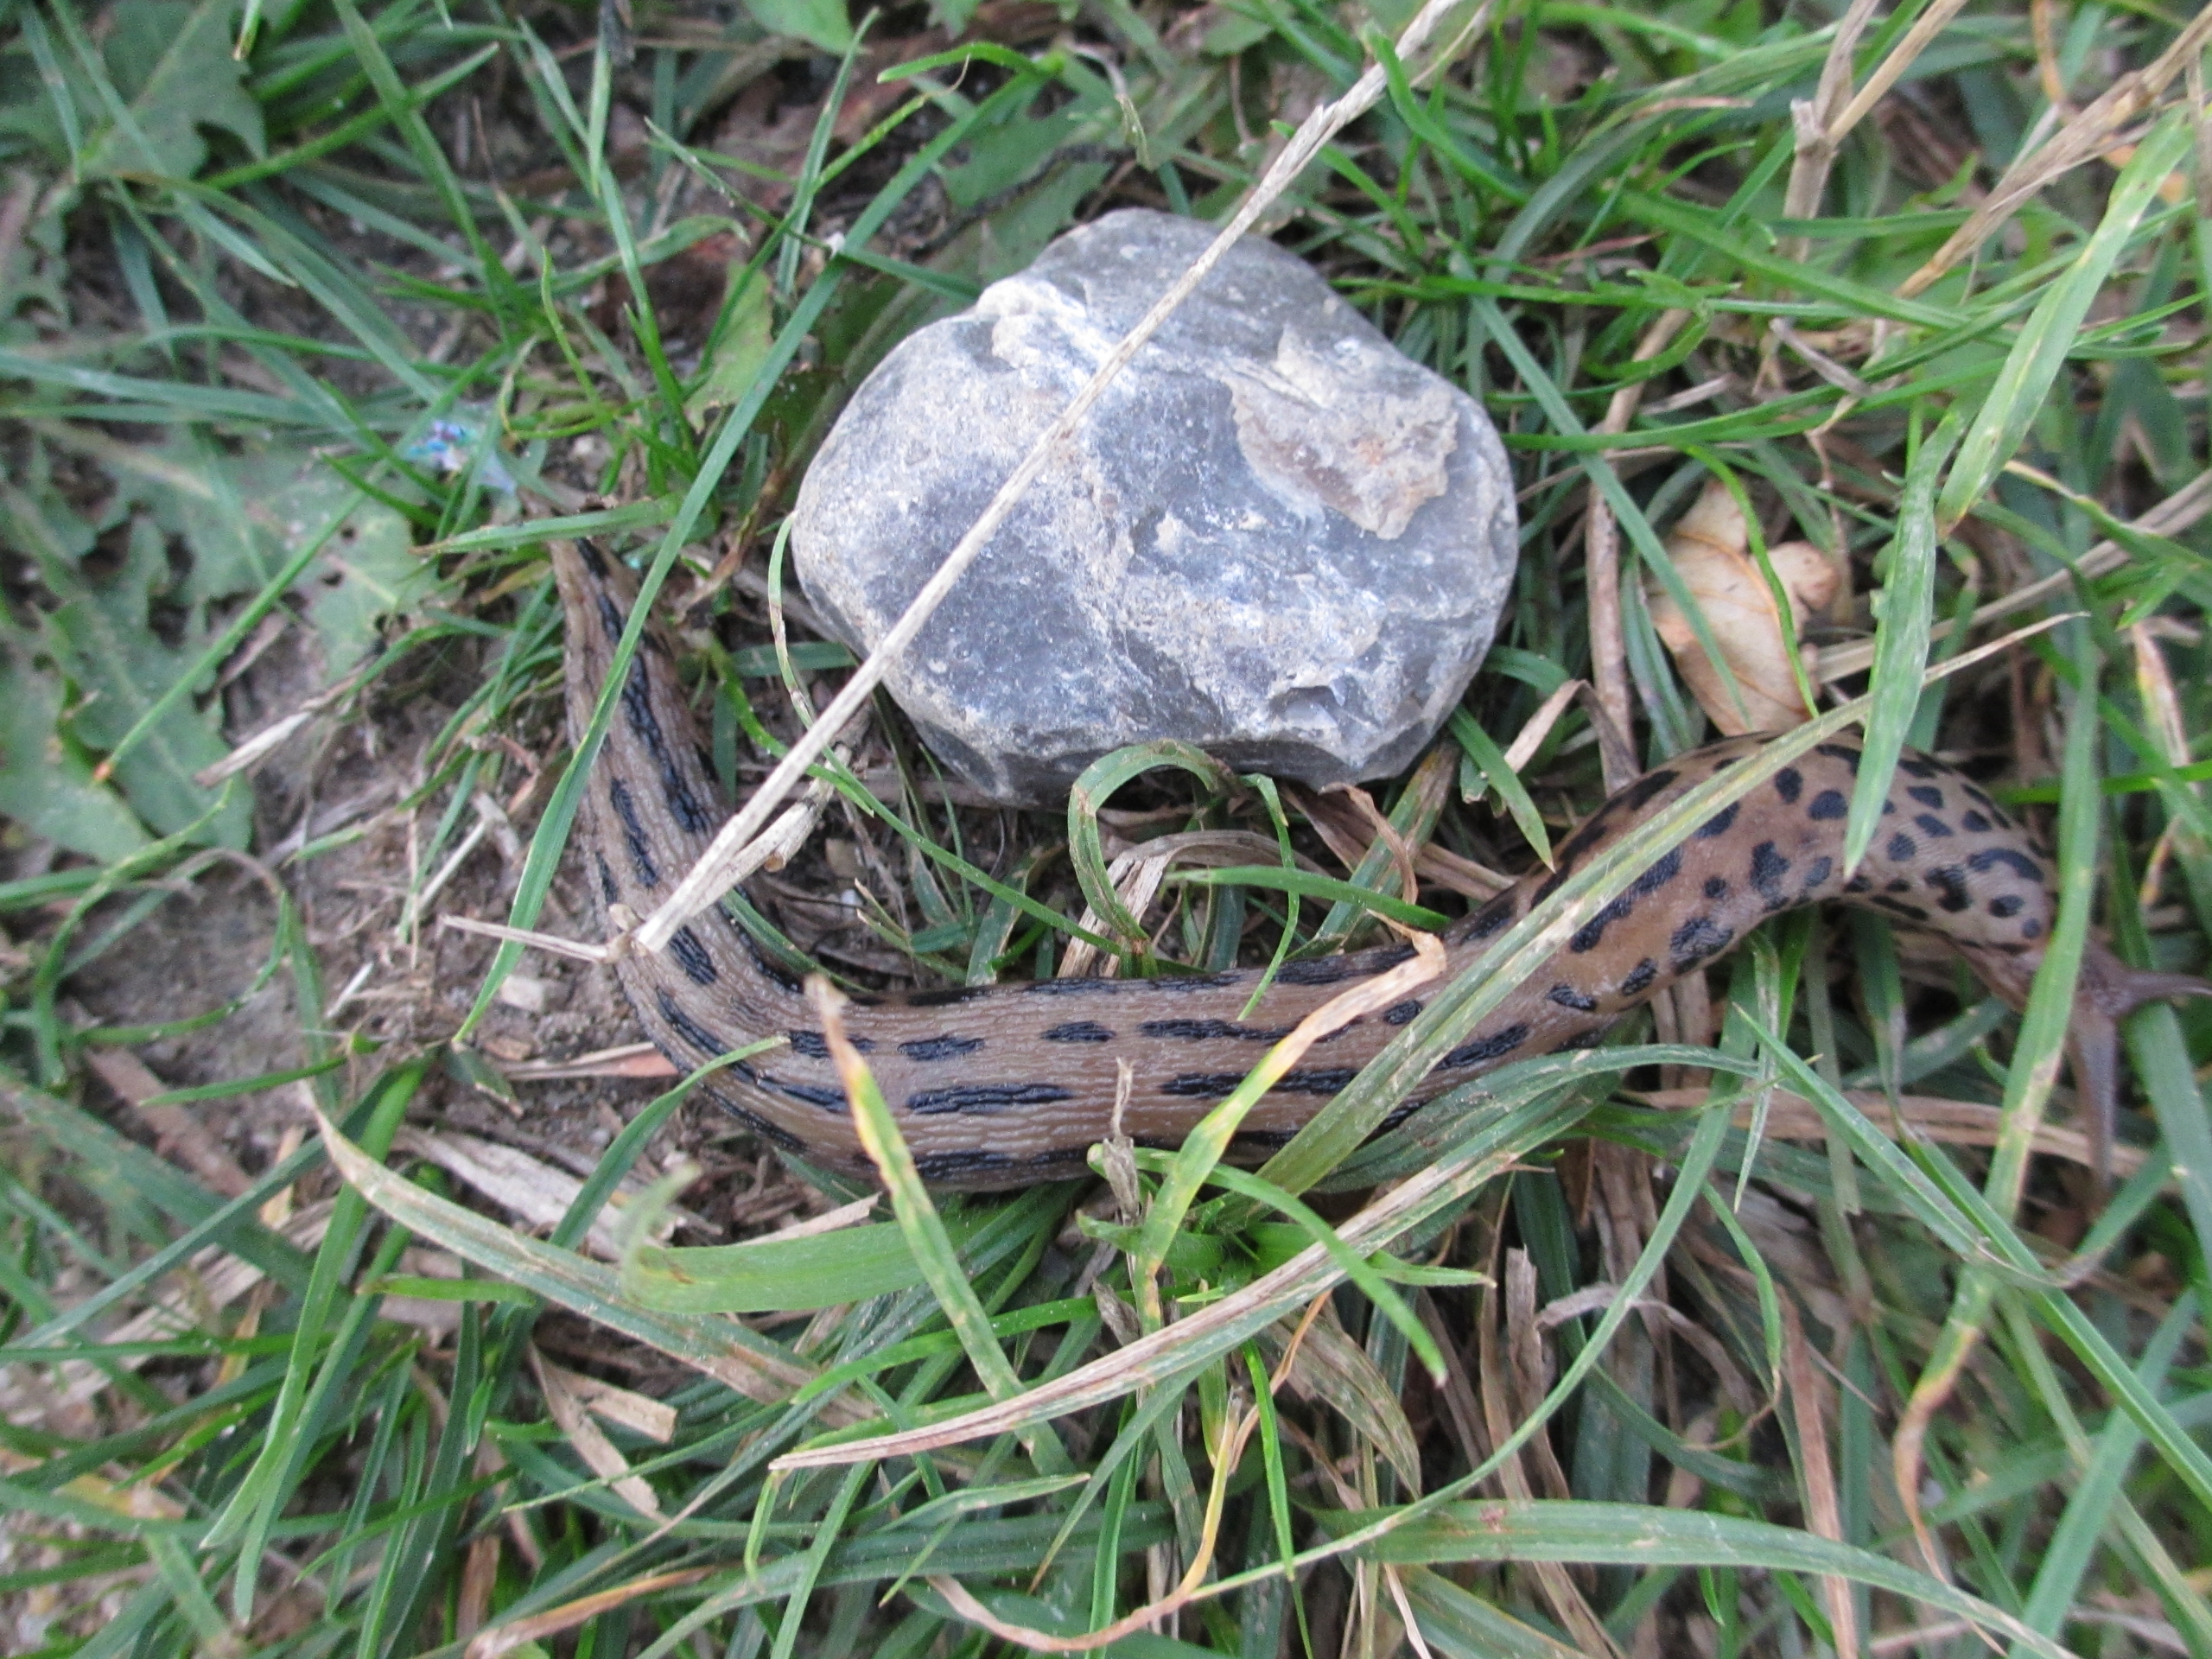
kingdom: Animalia
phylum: Mollusca
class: Gastropoda
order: Stylommatophora
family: Limacidae
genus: Limax
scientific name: Limax maximus
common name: Pantersnegl
